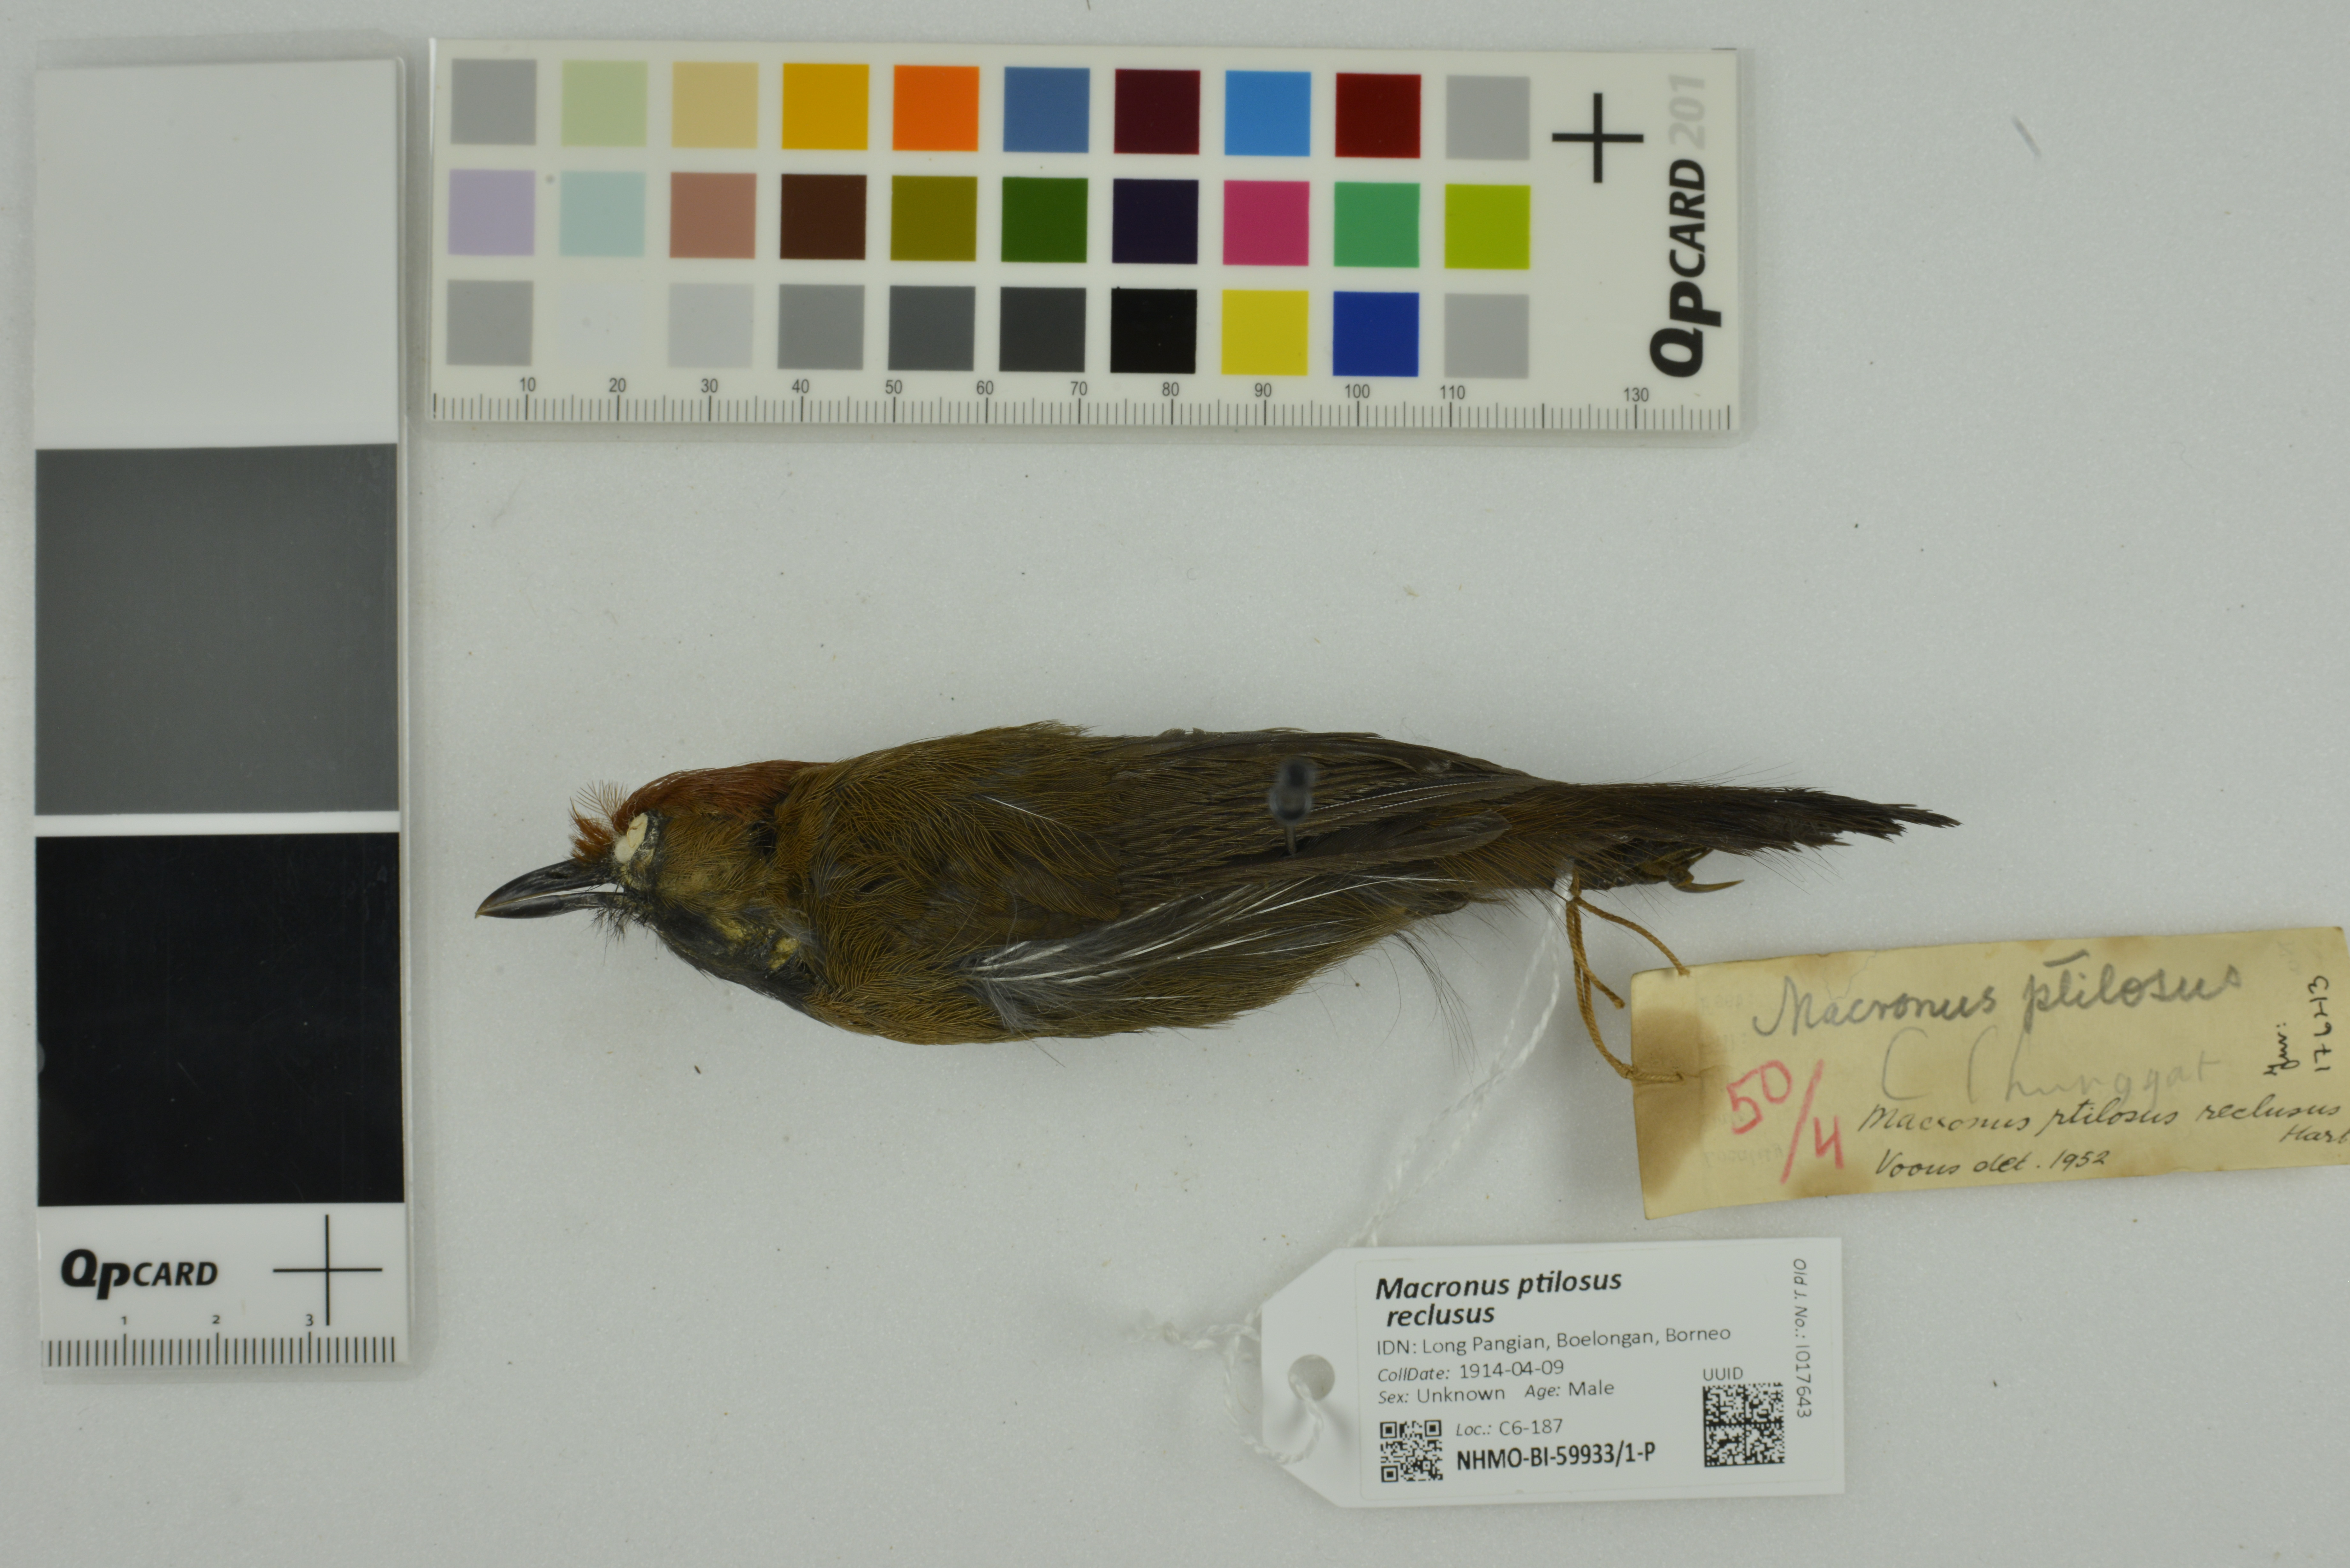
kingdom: Animalia
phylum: Chordata
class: Aves
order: Passeriformes
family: Timaliidae
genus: Macronus
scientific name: Macronus ptilosus
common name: Fluffy-backed tit-babbler
